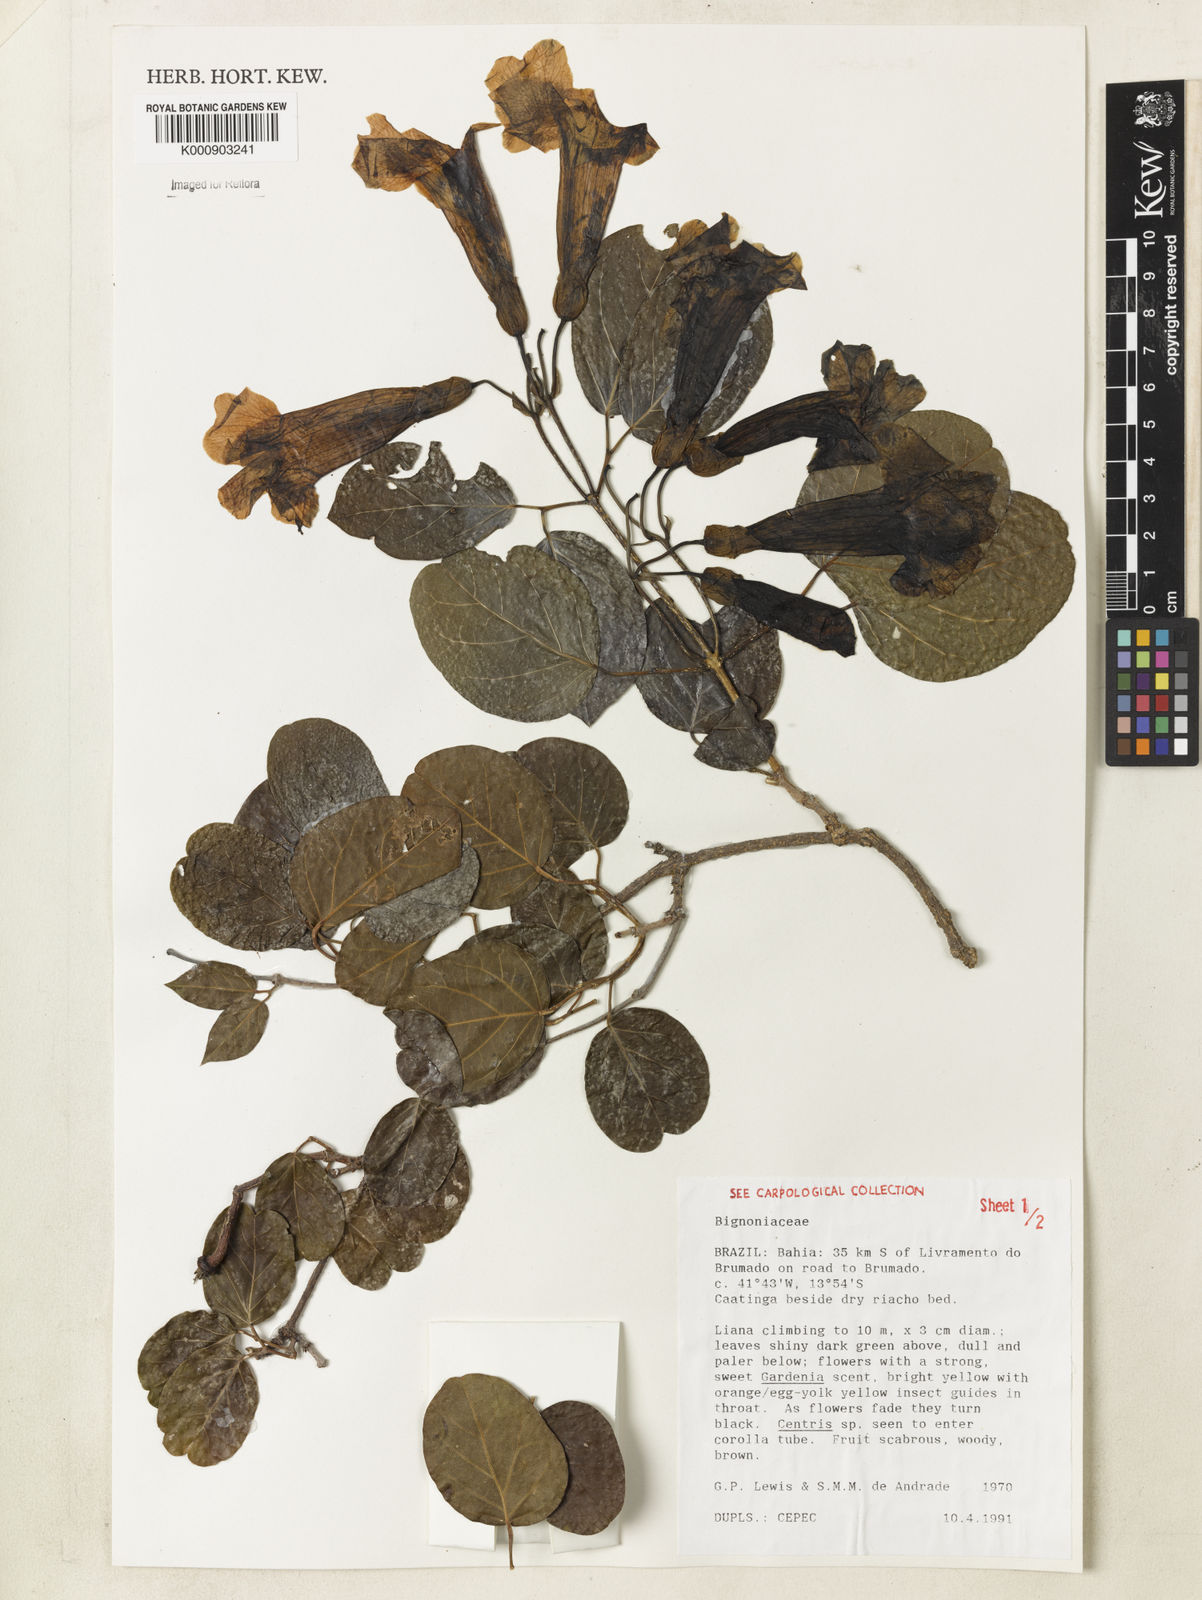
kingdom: Plantae
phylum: Tracheophyta
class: Magnoliopsida
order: Lamiales
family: Bignoniaceae
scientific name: Bignoniaceae
